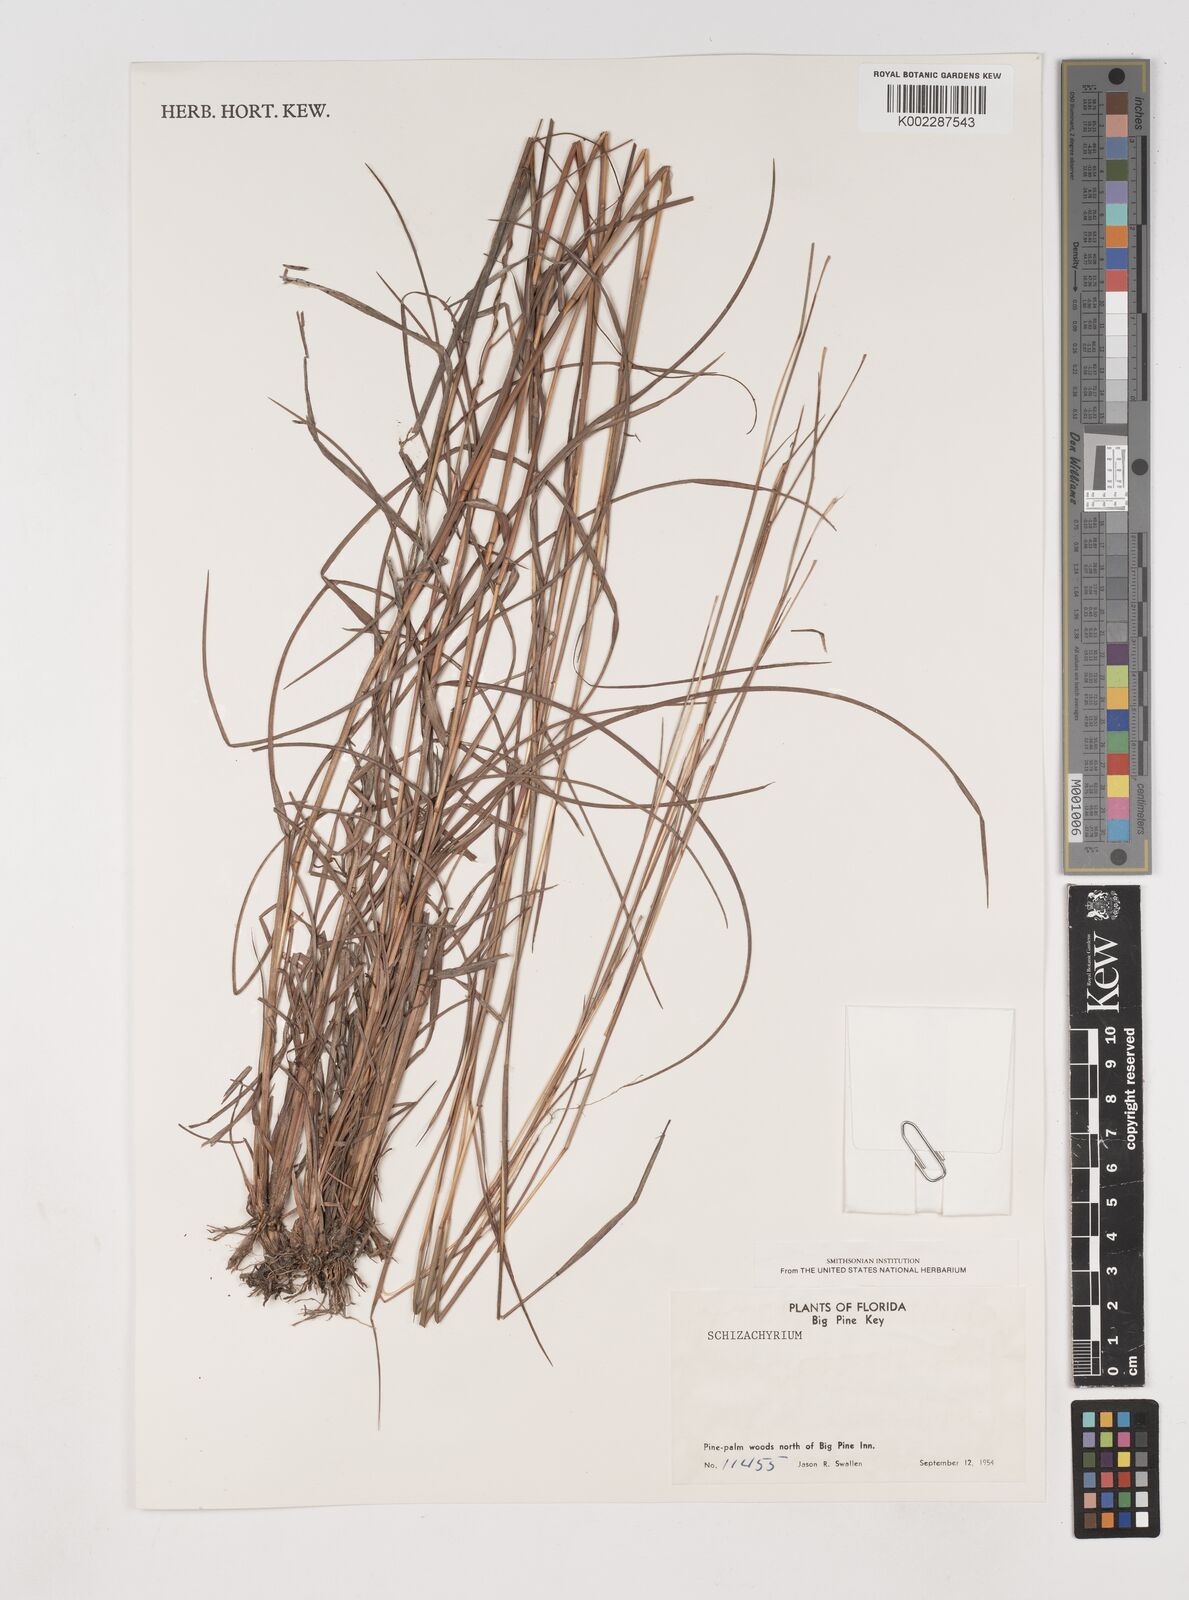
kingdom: Plantae
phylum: Tracheophyta
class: Liliopsida
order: Poales
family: Poaceae
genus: Schizachyrium
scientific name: Schizachyrium
